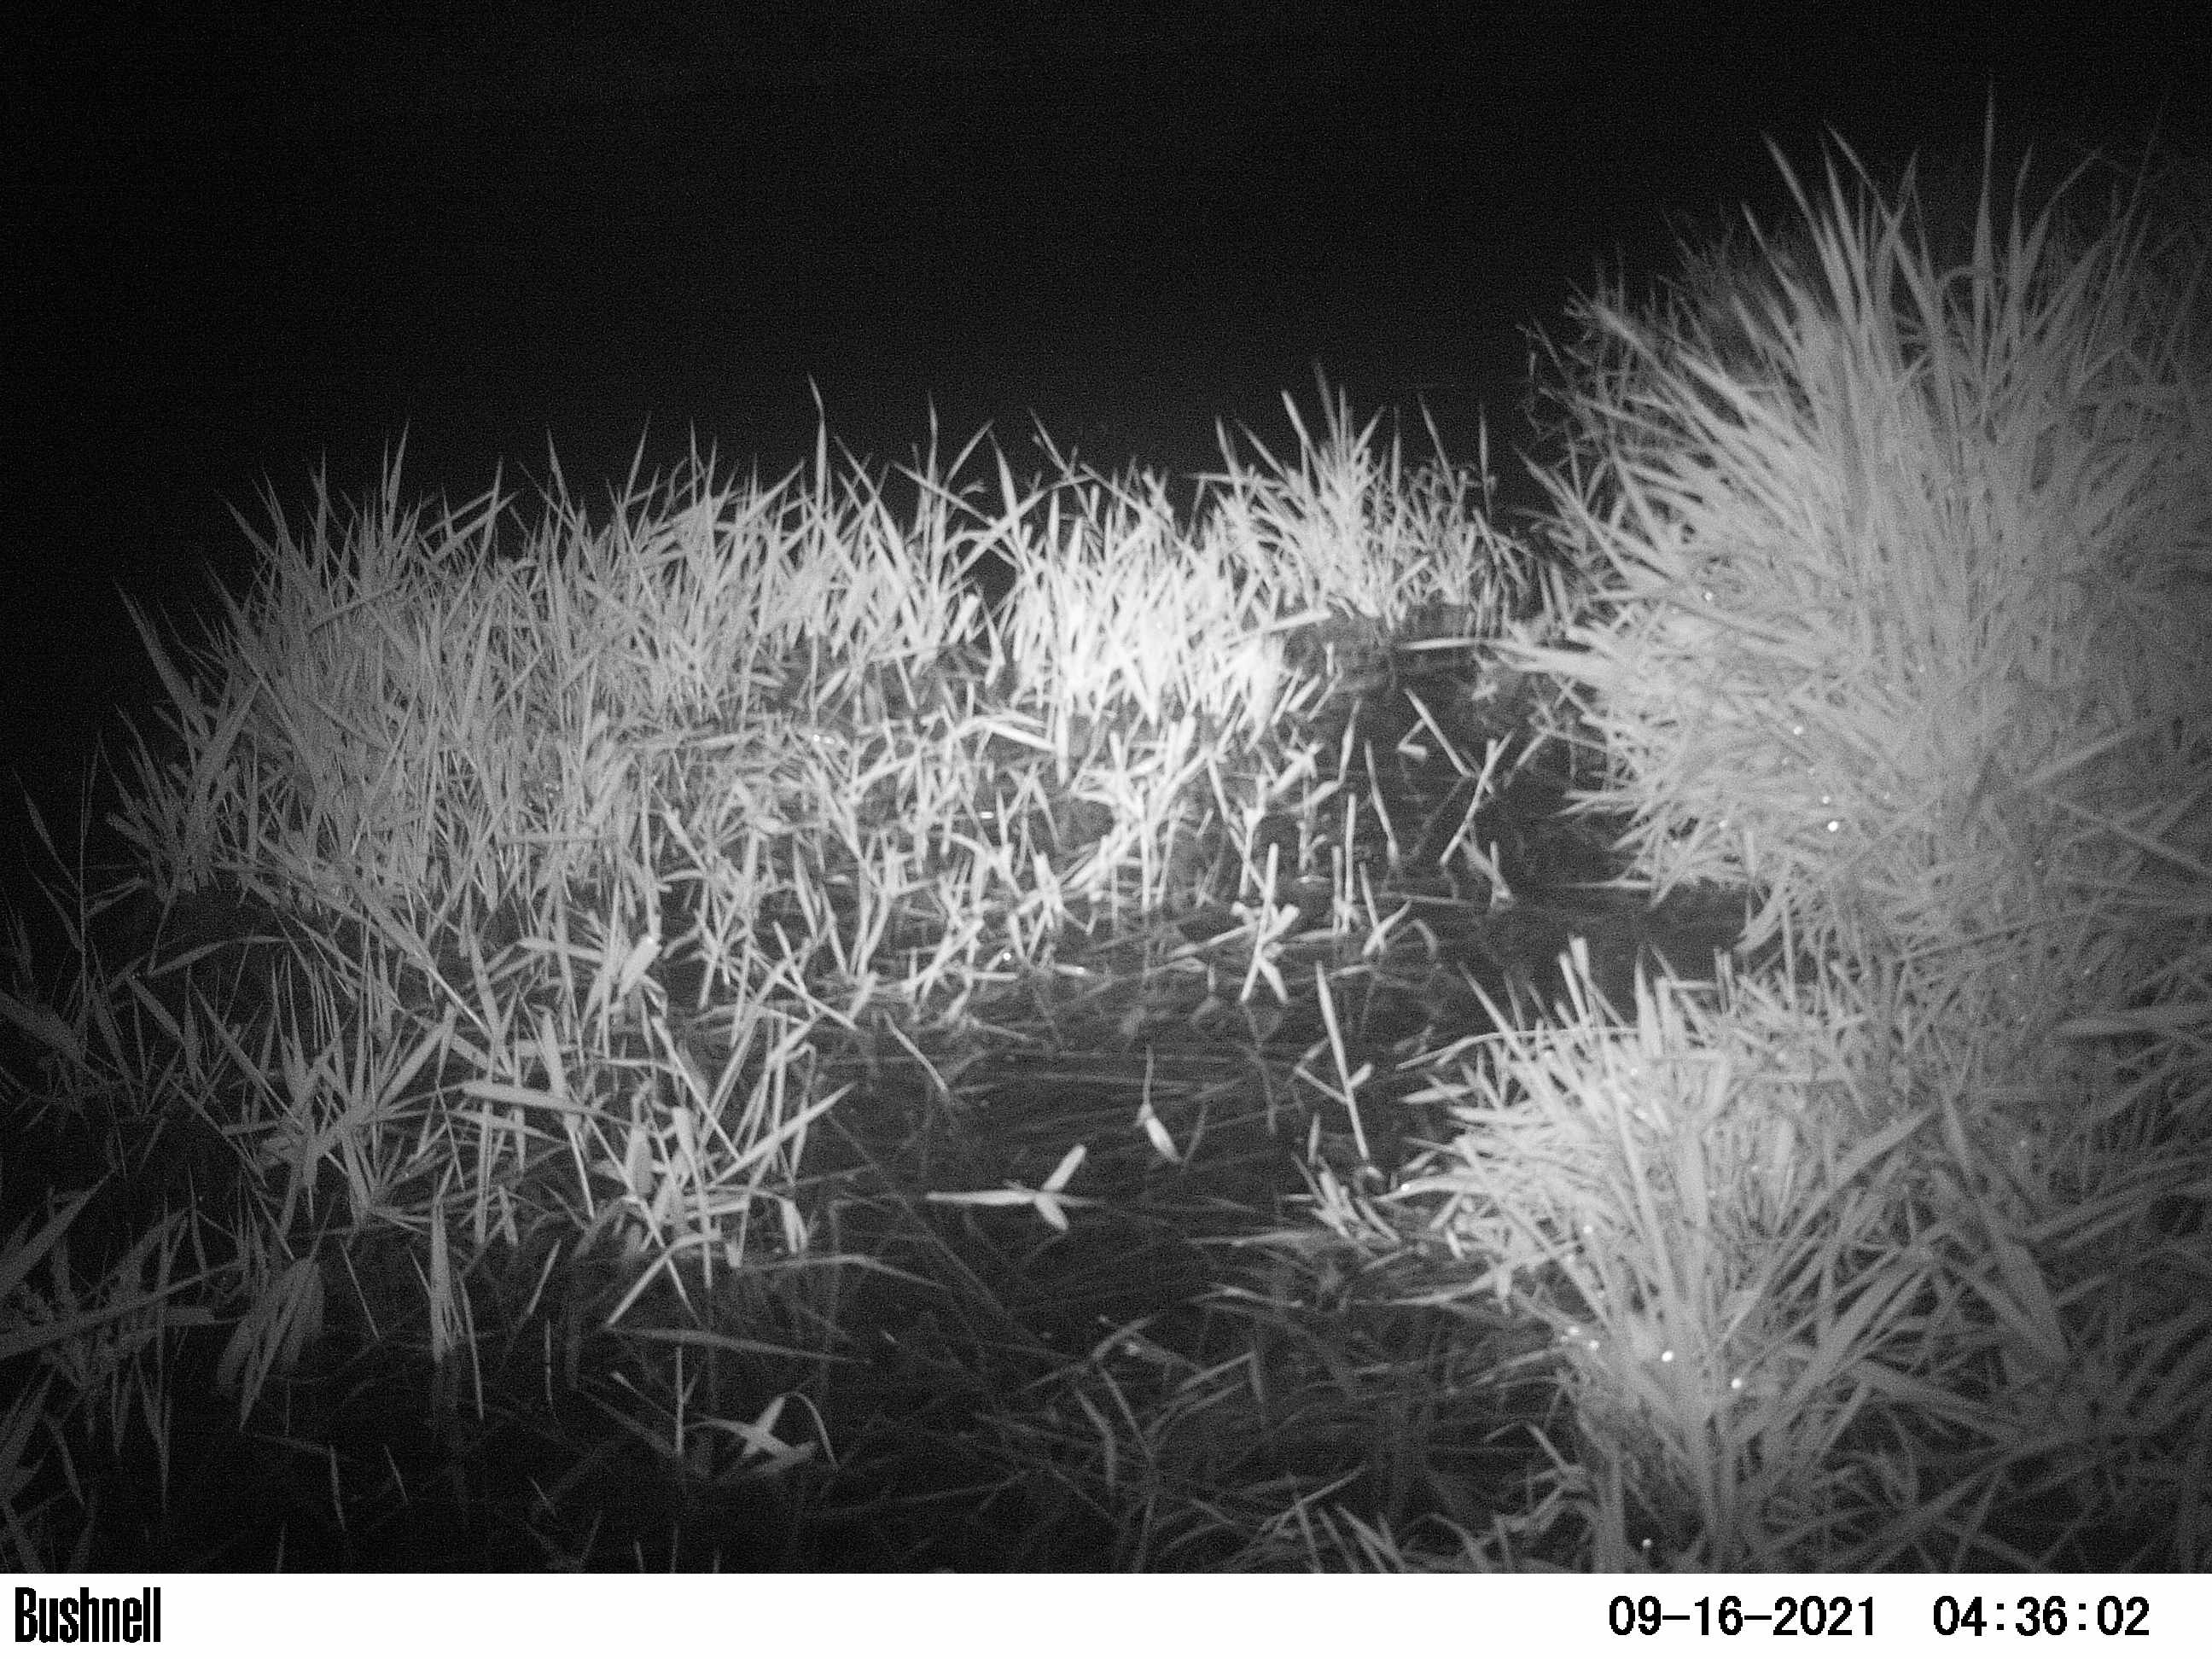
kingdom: Animalia
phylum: Chordata
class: Mammalia
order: Rodentia
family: Cricetidae
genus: Ondatra
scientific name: Ondatra zibethicus
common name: Muskrat
